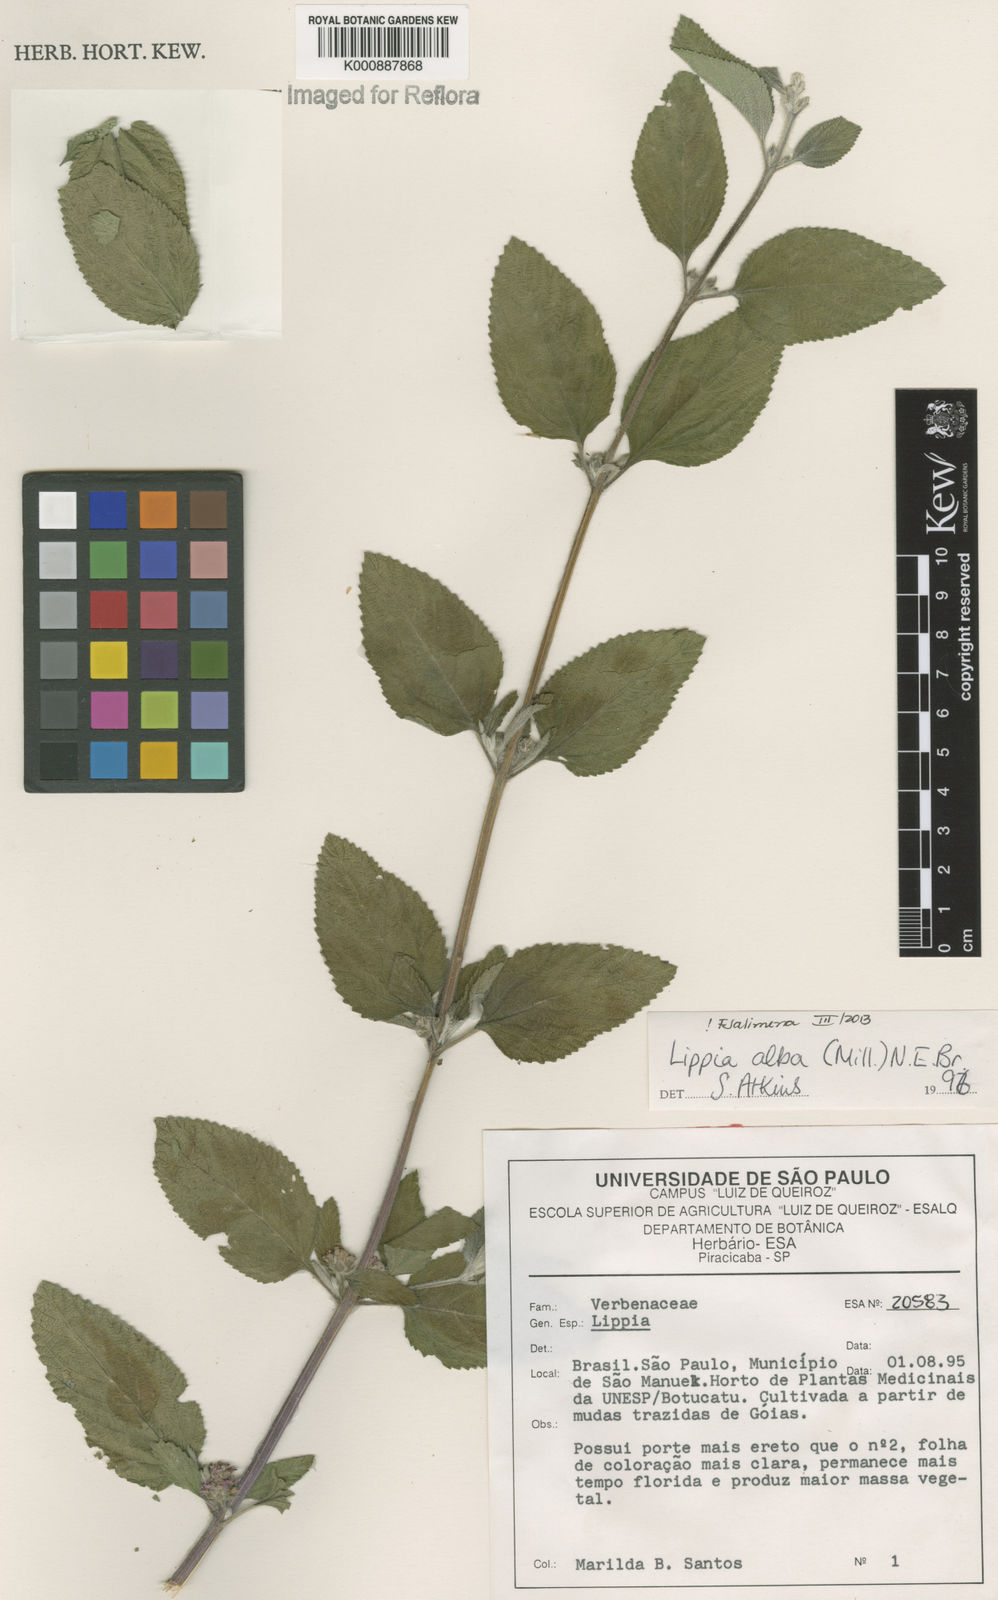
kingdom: Plantae
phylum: Tracheophyta
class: Magnoliopsida
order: Lamiales
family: Verbenaceae
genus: Lippia
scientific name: Lippia
